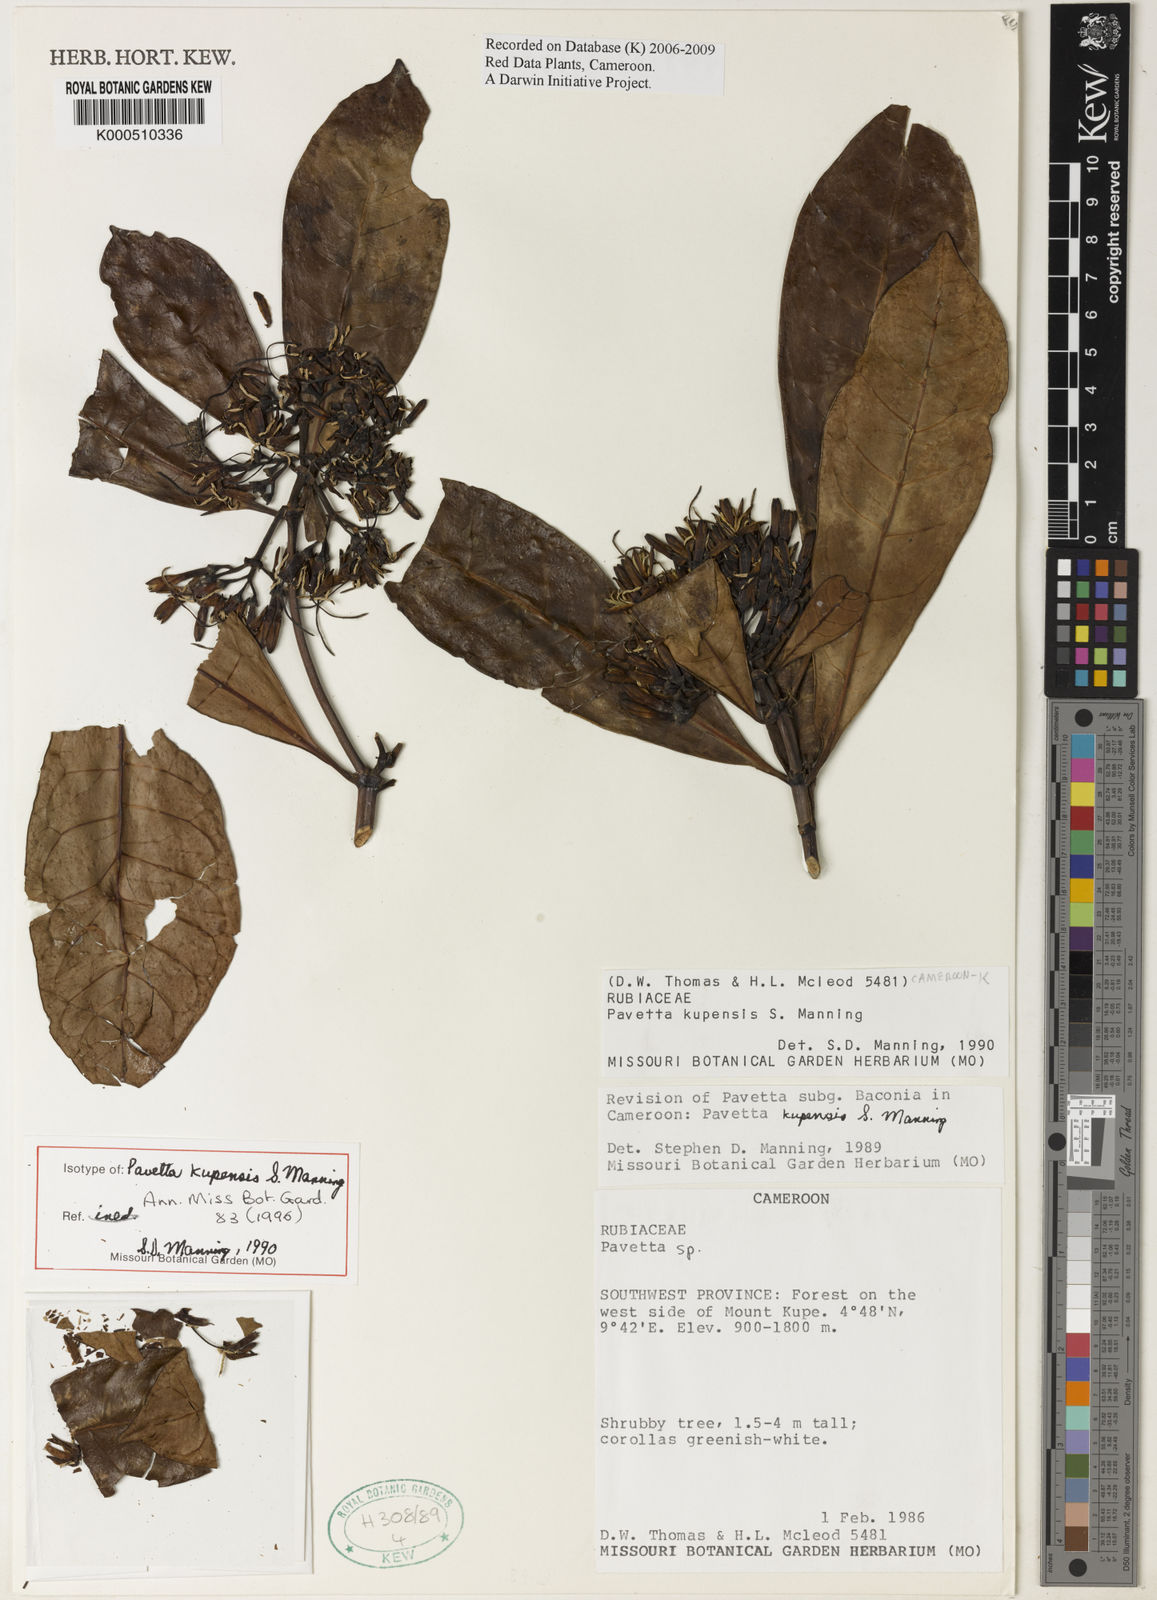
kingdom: Plantae
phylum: Tracheophyta
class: Magnoliopsida
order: Gentianales
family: Rubiaceae
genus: Pavetta
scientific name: Pavetta kupensis
